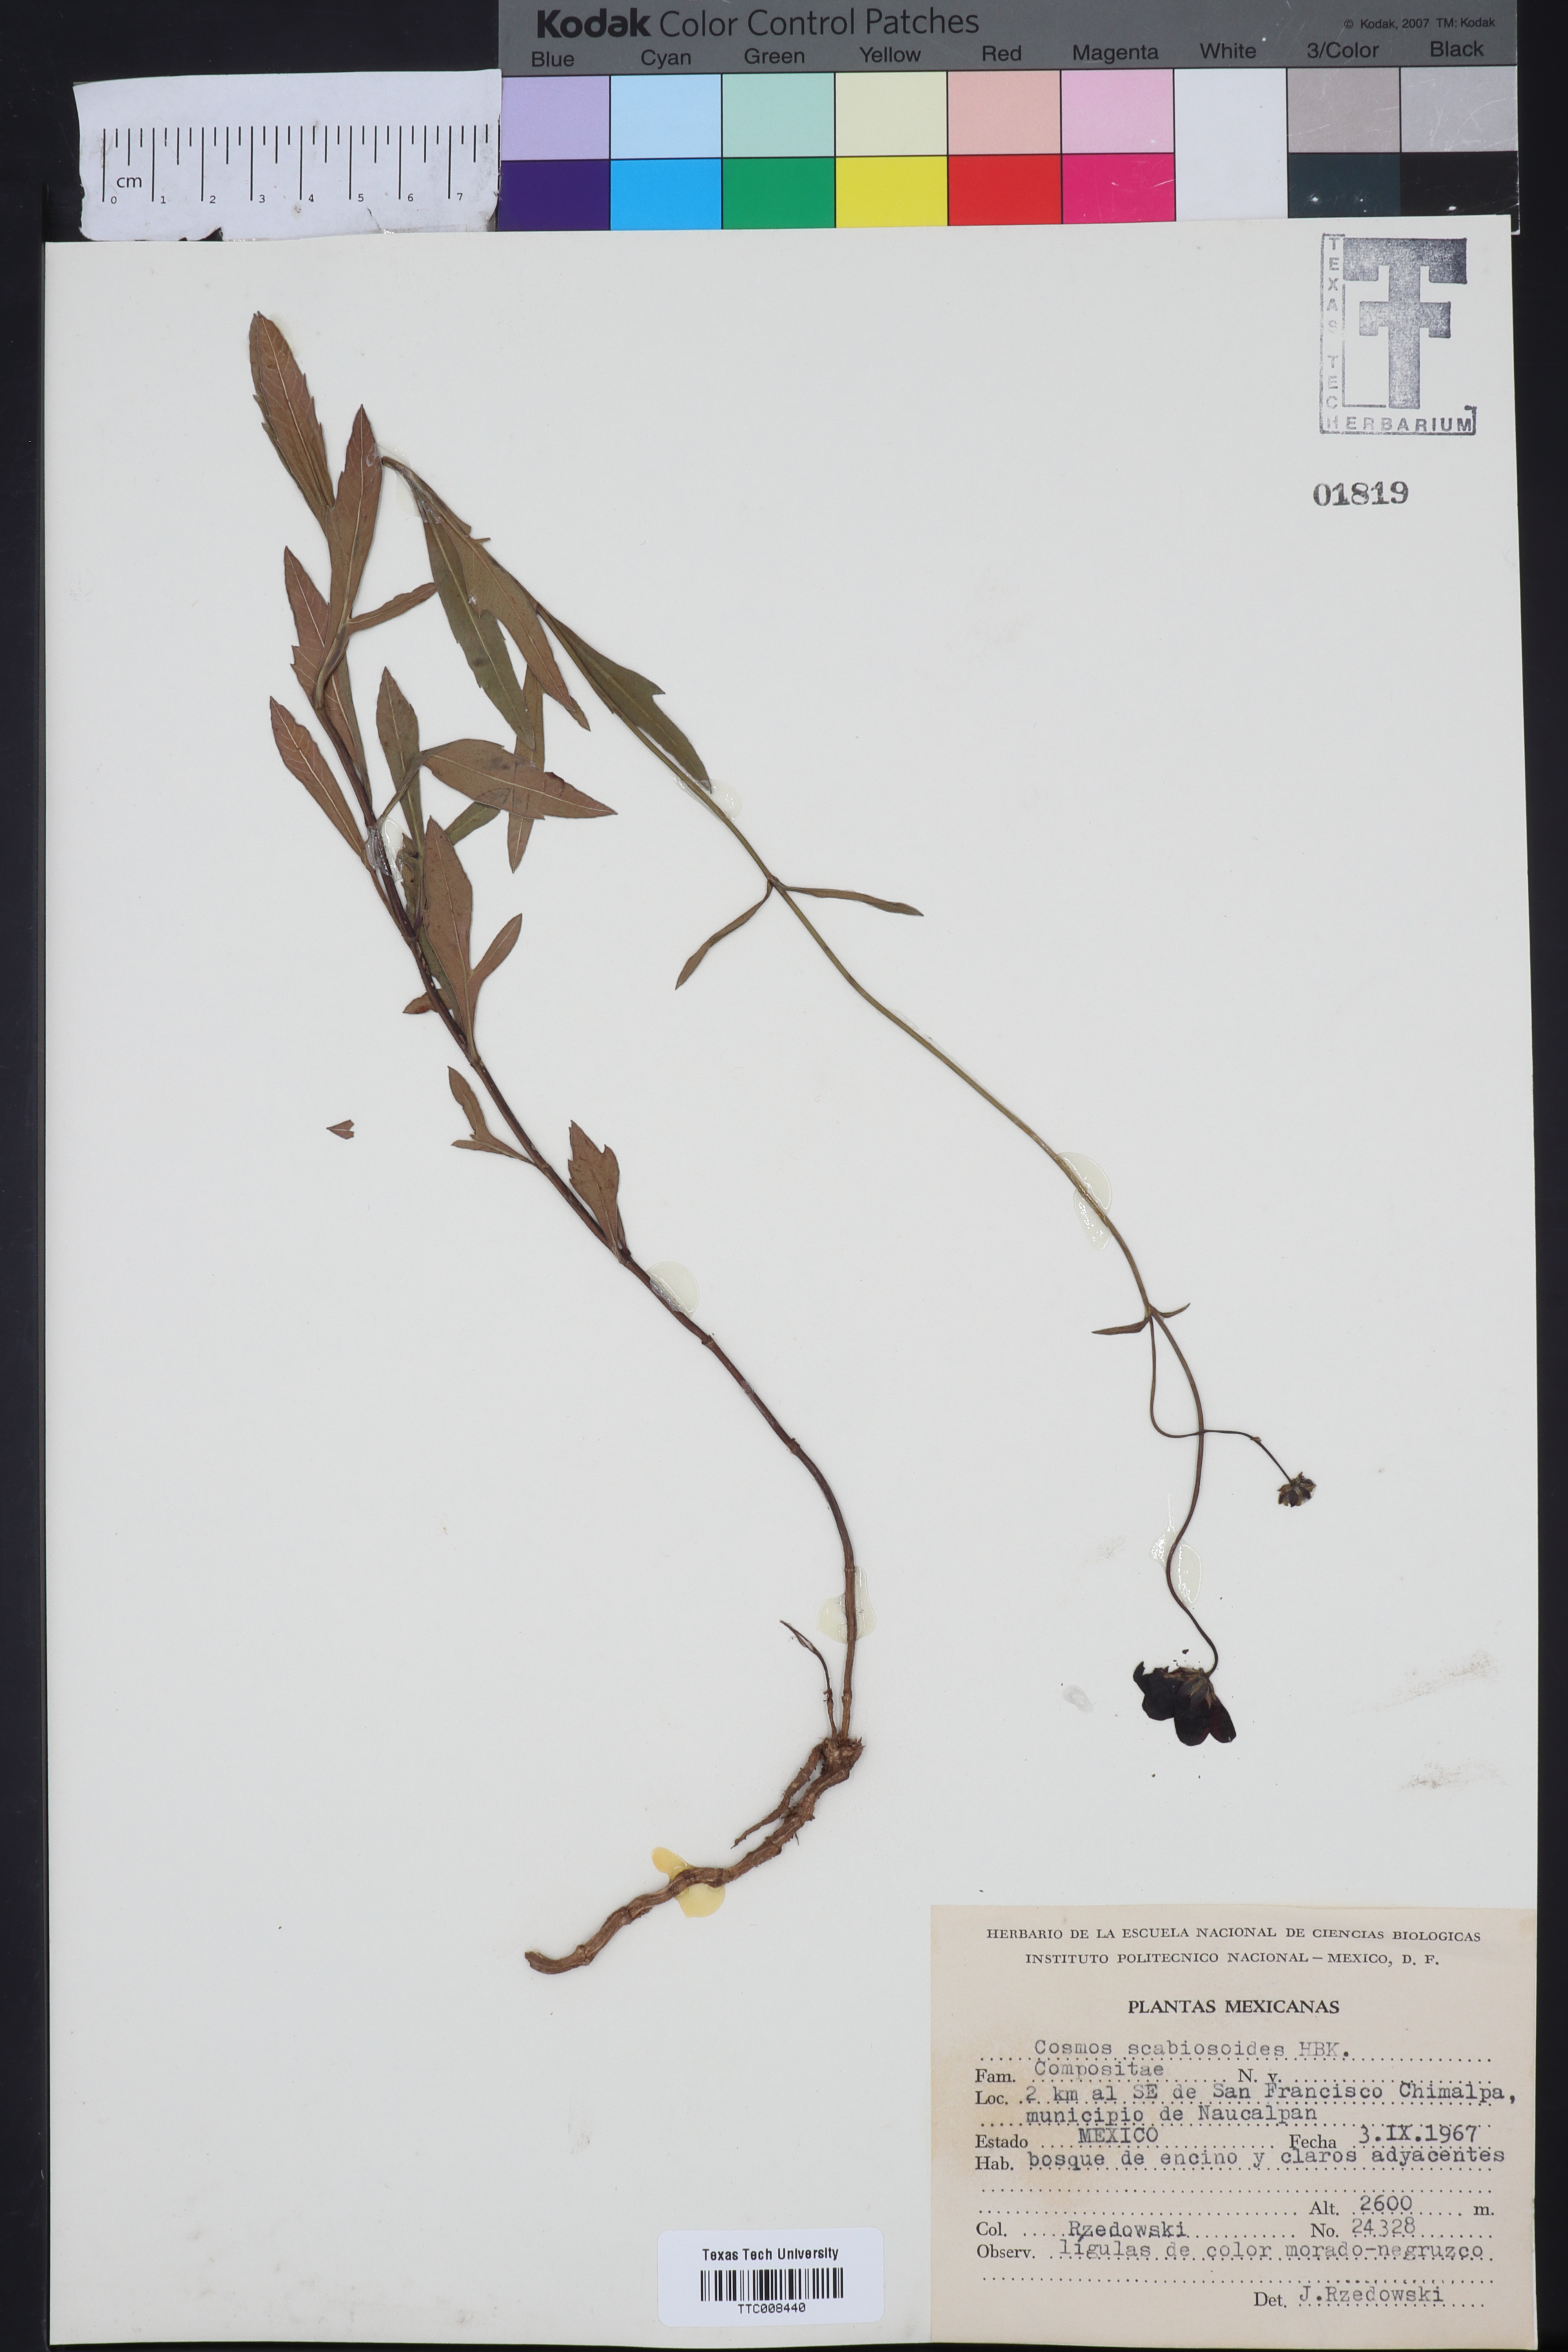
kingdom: Plantae
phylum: Tracheophyta
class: Magnoliopsida
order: Asterales
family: Asteraceae
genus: Cosmos
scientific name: Cosmos scabiosoides
